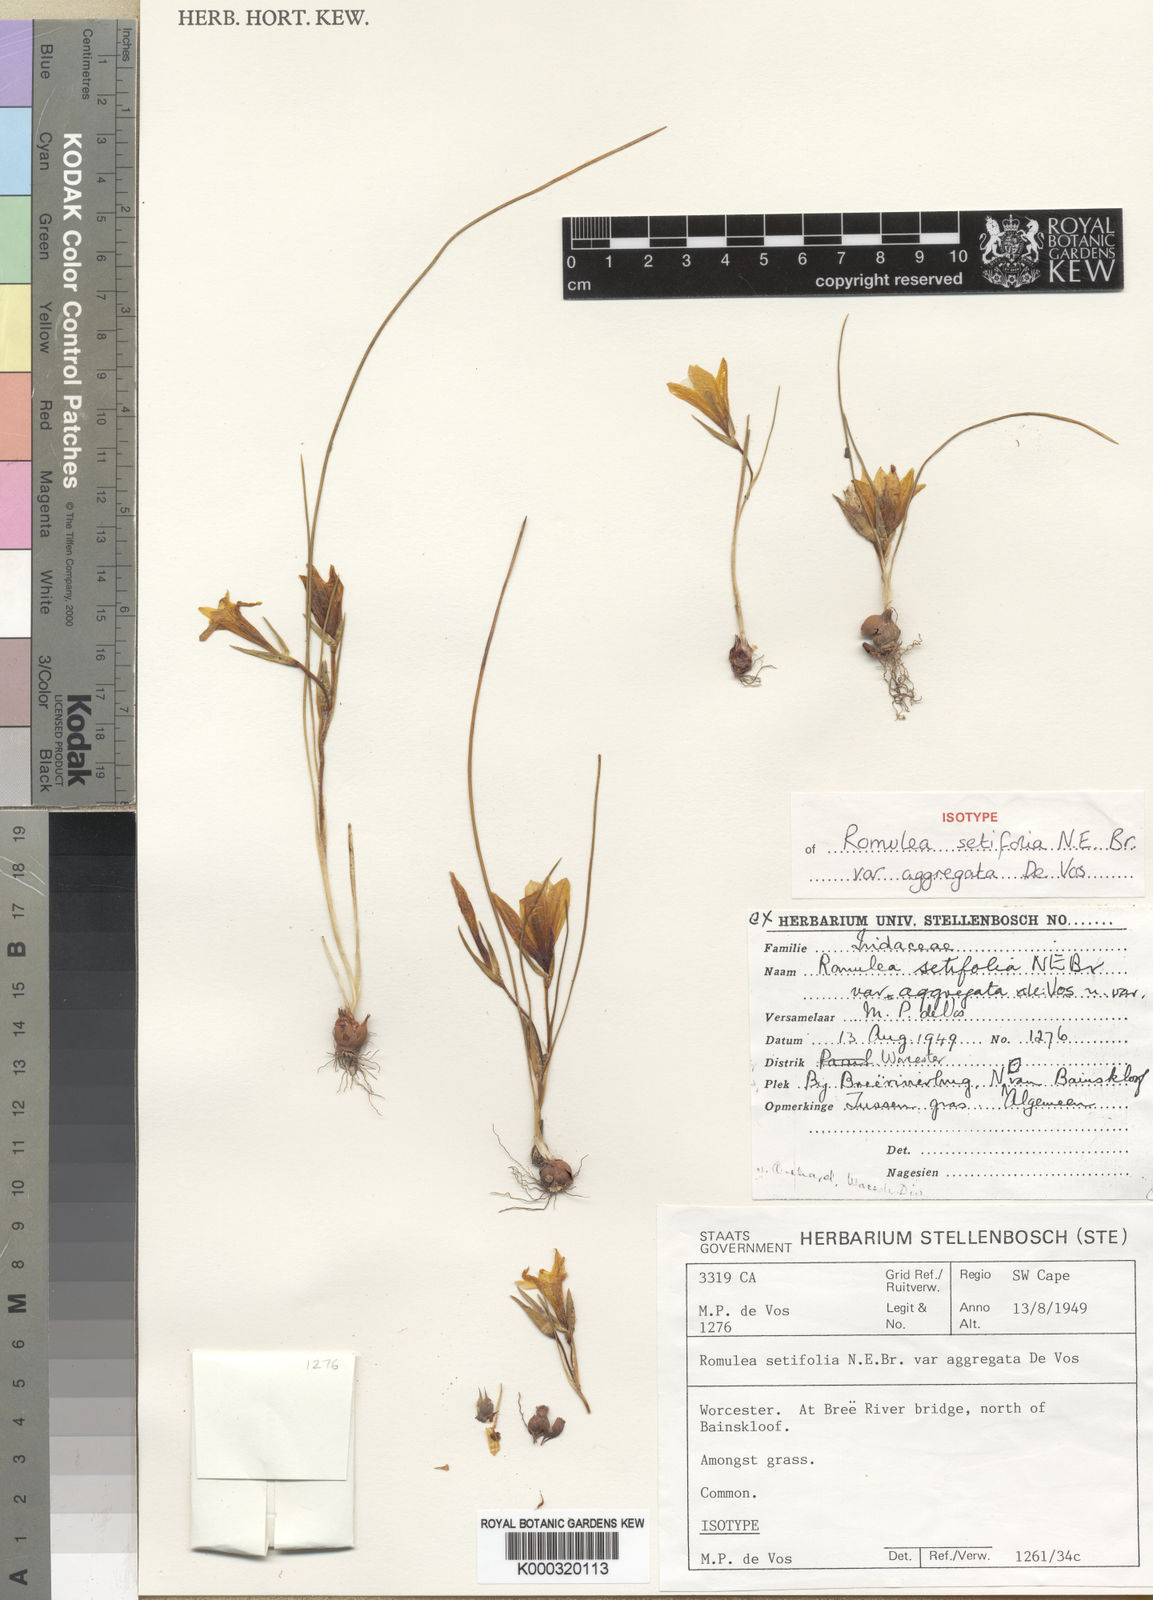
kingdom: Plantae
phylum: Tracheophyta
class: Liliopsida
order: Asparagales
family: Iridaceae
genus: Romulea
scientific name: Romulea setifolia
